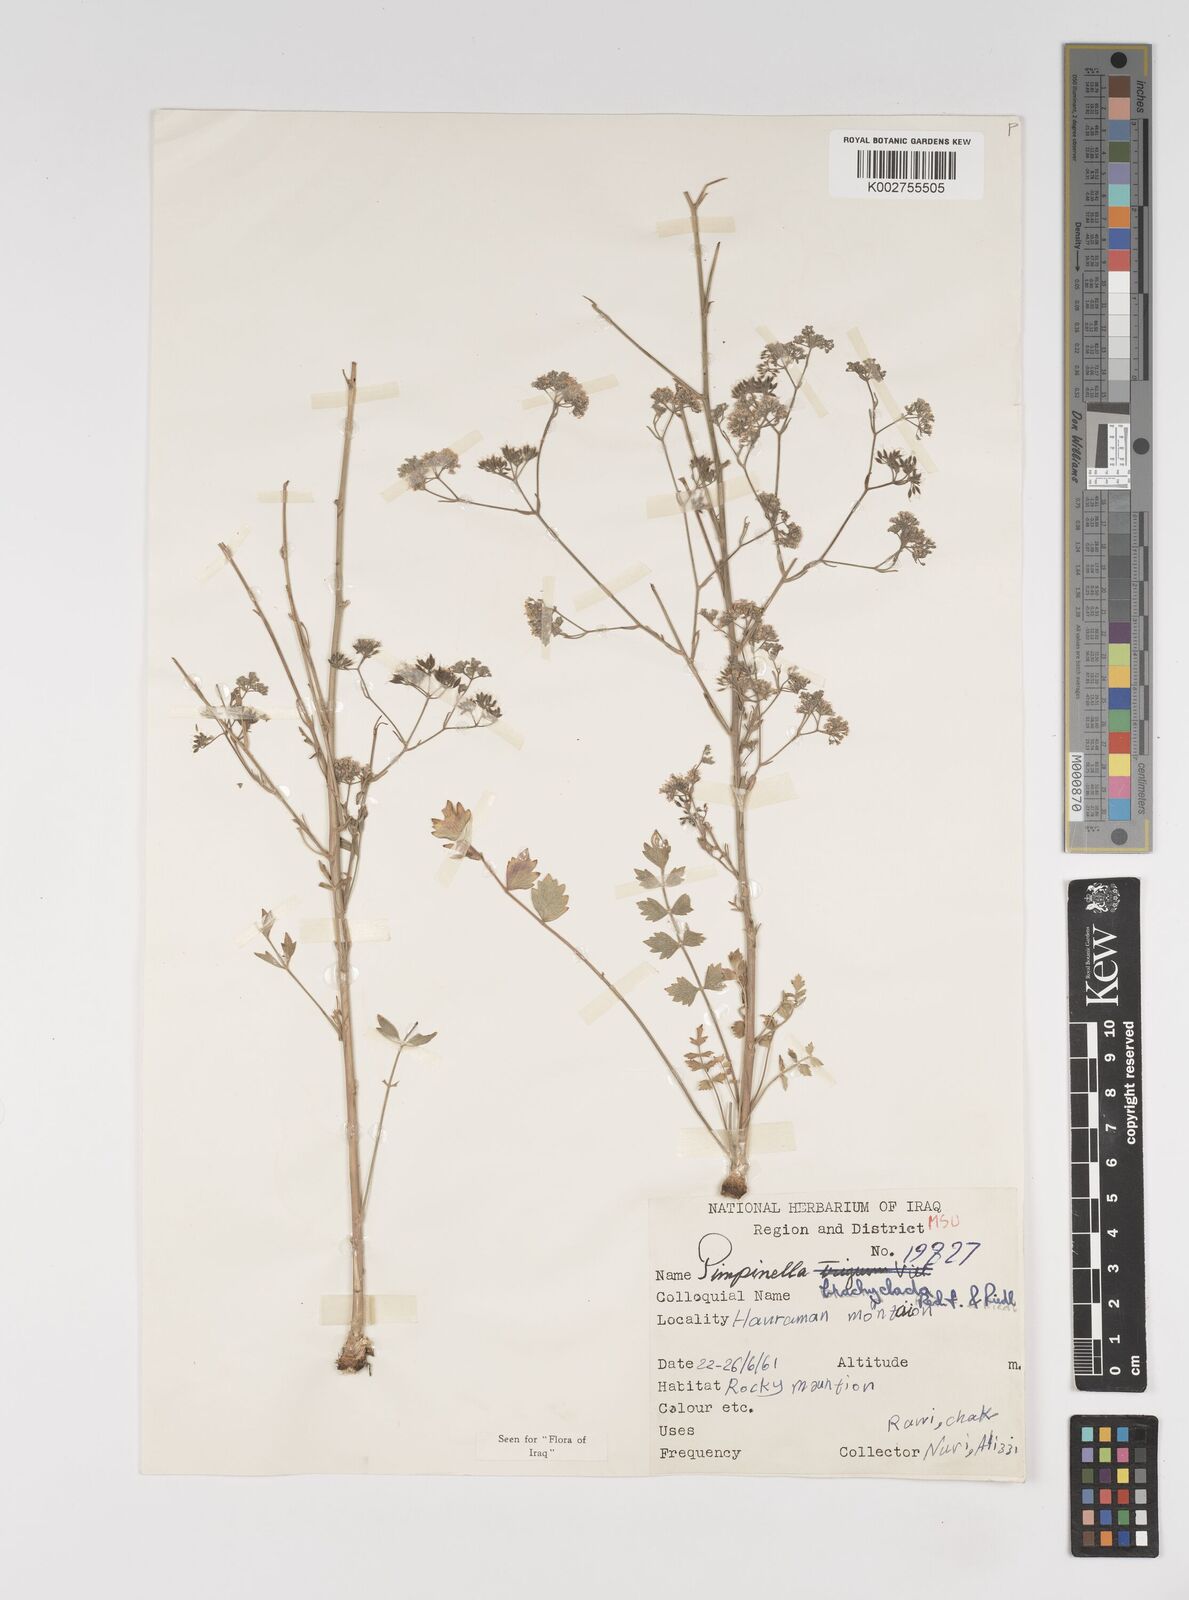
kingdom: Plantae
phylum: Tracheophyta
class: Magnoliopsida
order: Apiales
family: Apiaceae
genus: Pimpinella
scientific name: Pimpinella brachyclada
